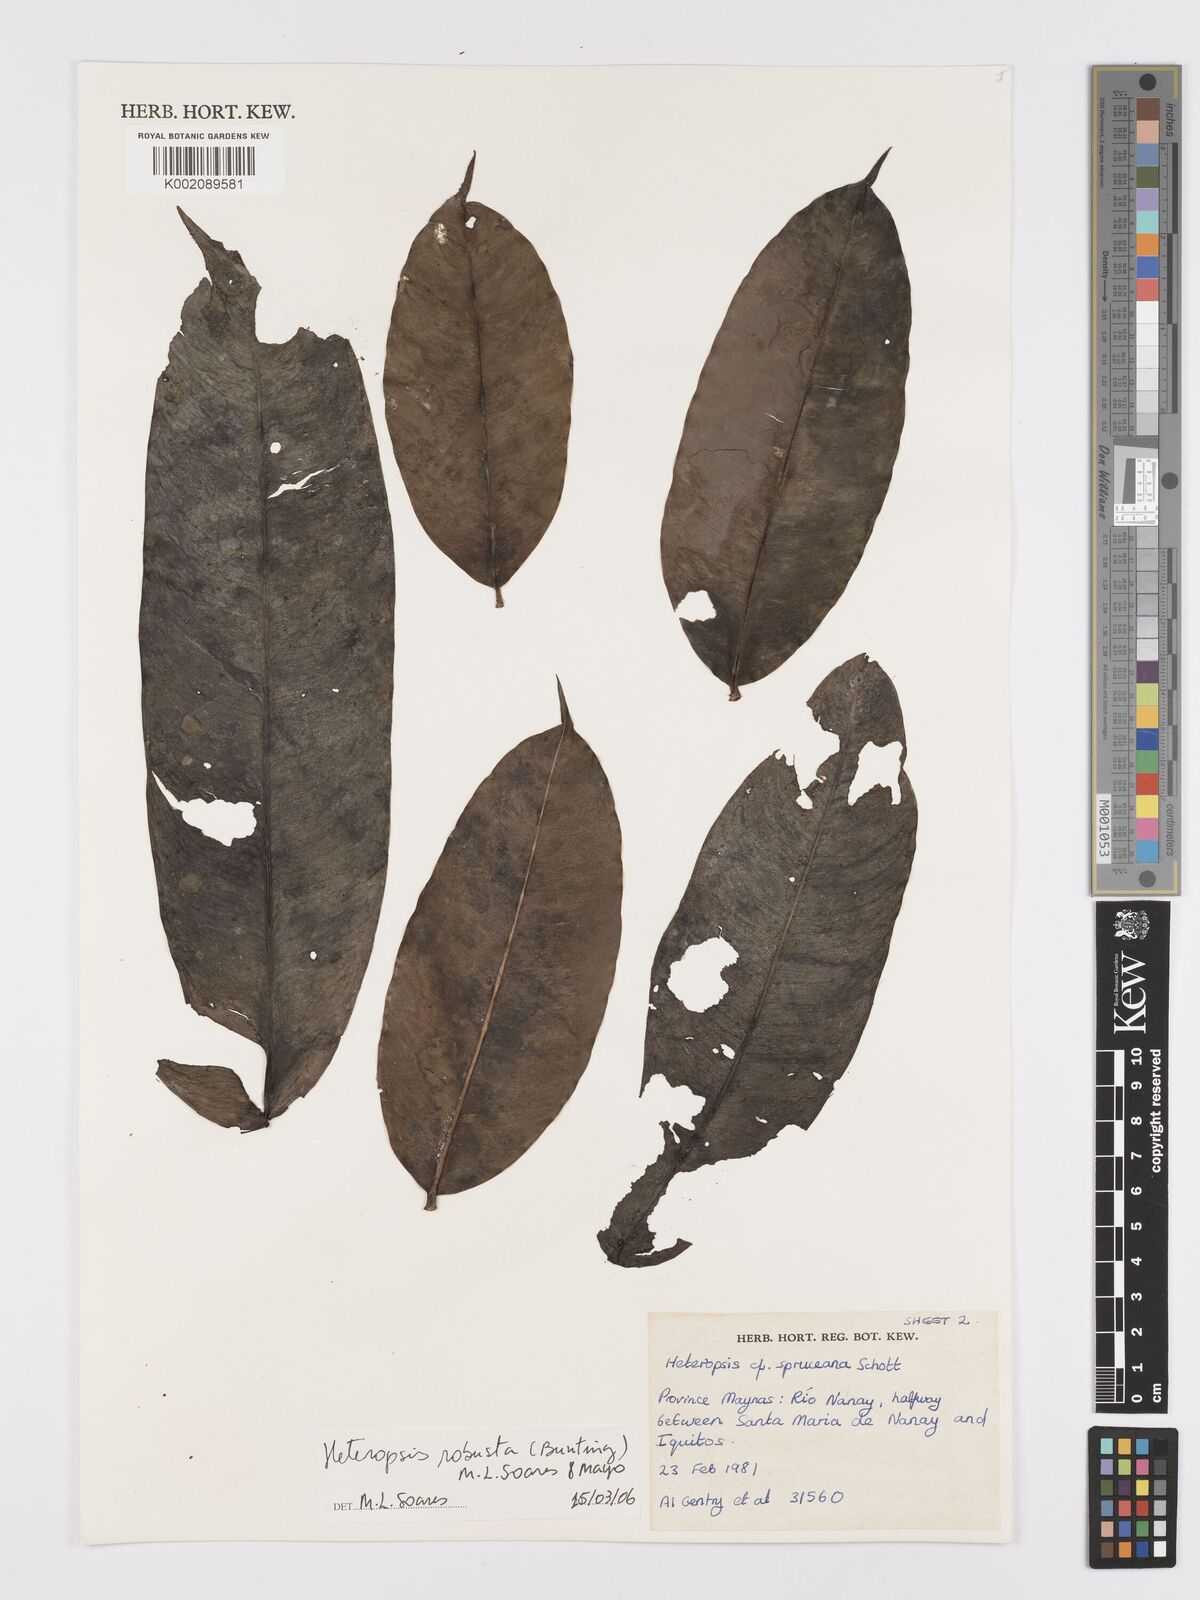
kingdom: Plantae
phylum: Tracheophyta
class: Liliopsida
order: Alismatales
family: Araceae
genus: Heteropsis
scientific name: Heteropsis robusta
